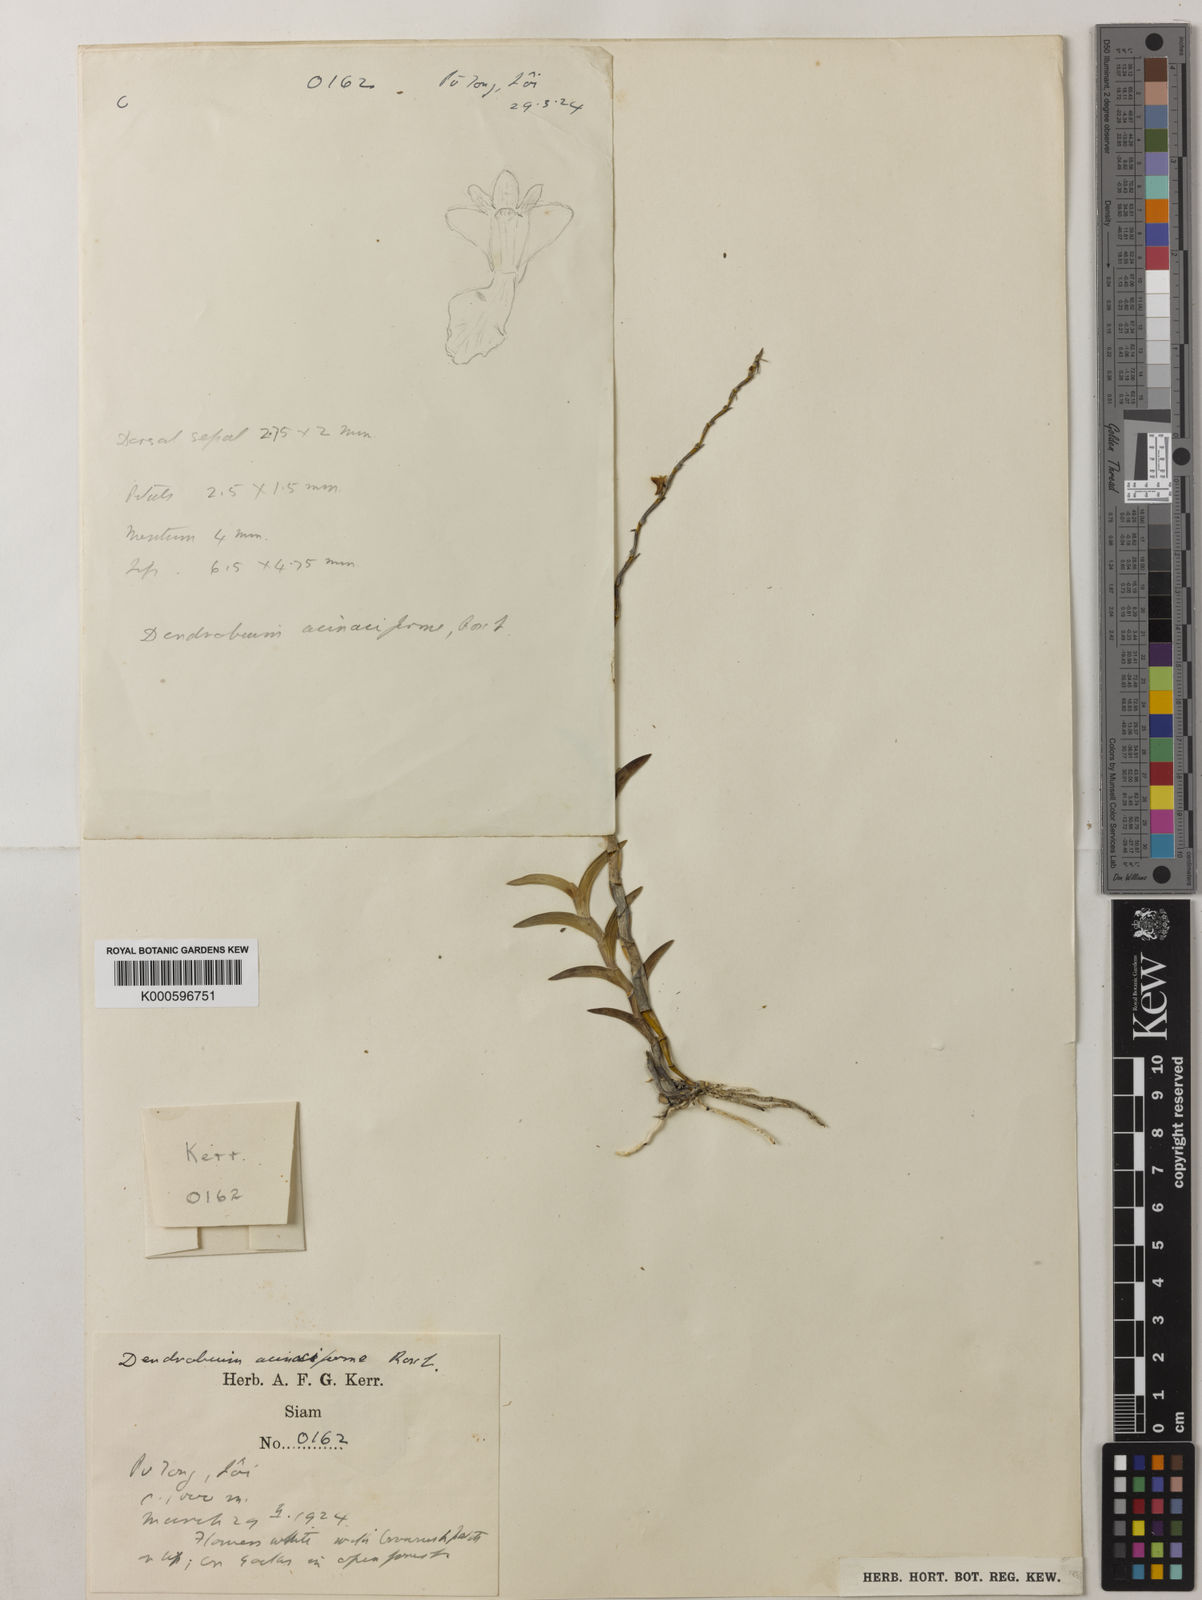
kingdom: Plantae
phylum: Tracheophyta
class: Liliopsida
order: Asparagales
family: Orchidaceae
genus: Dendrobium
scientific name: Dendrobium acinaciforme
